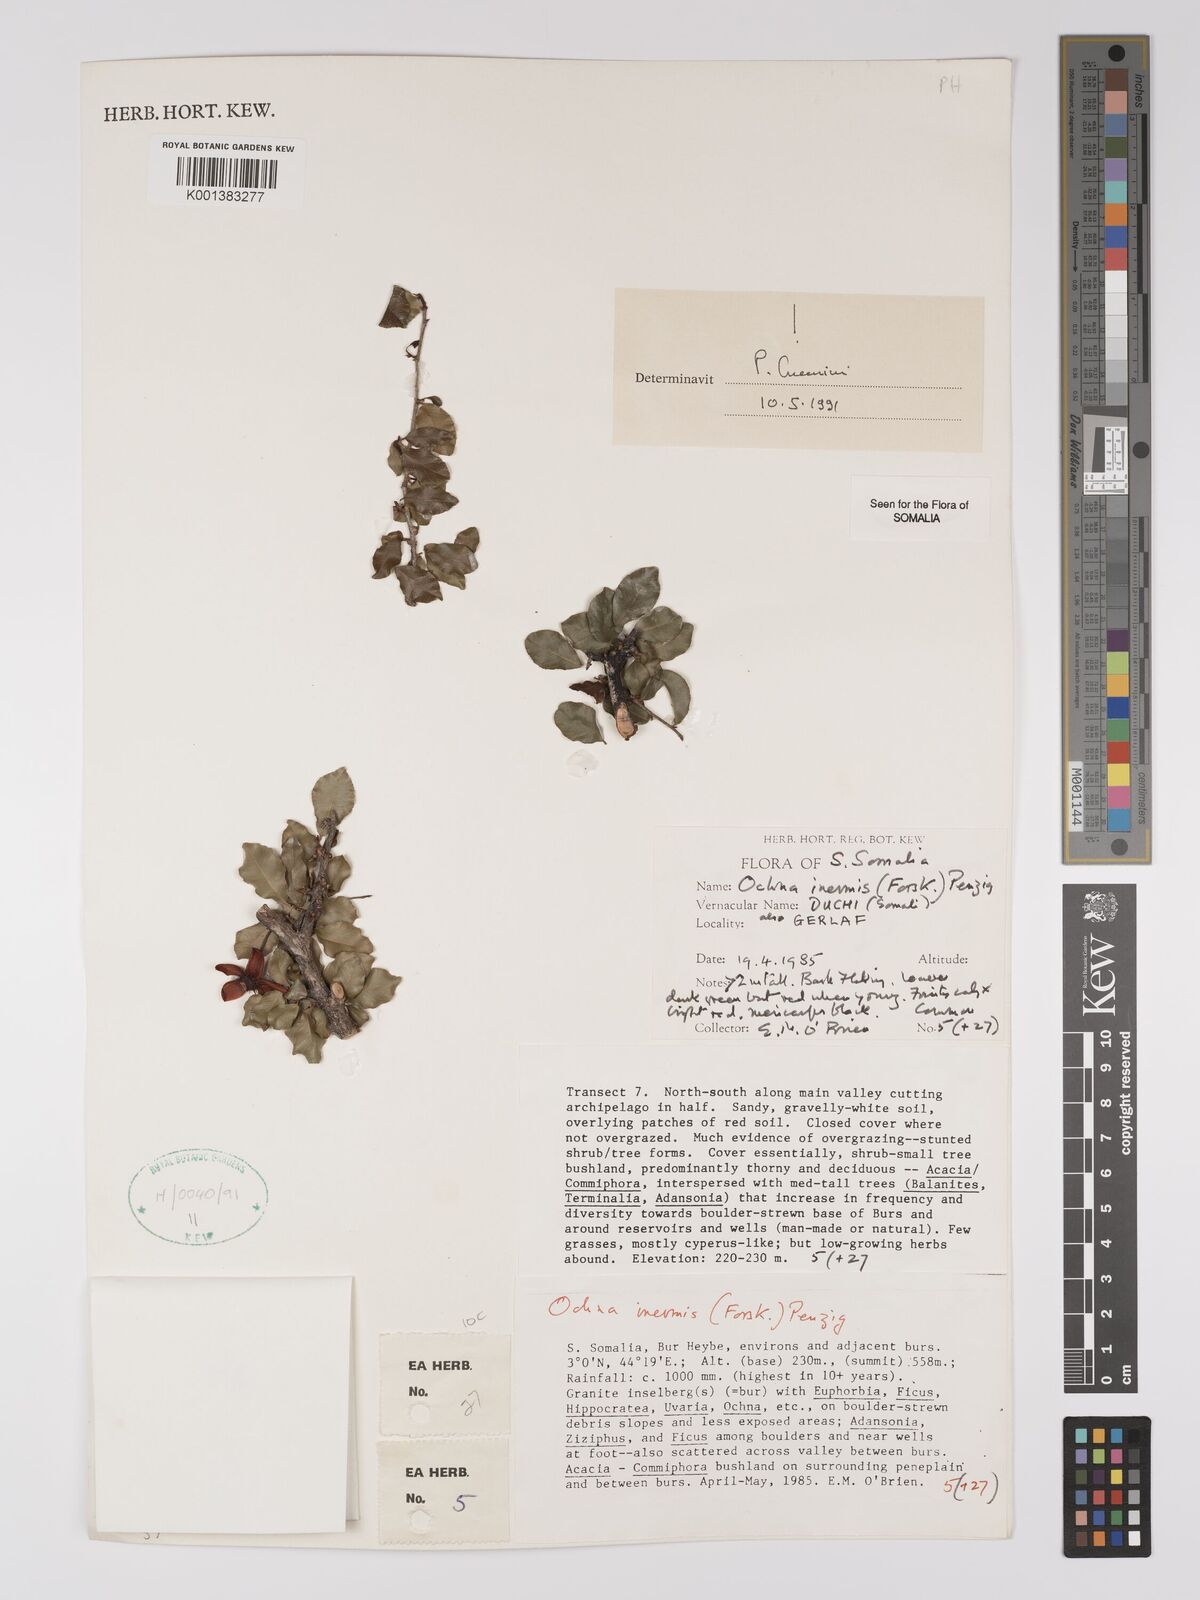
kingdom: Plantae
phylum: Tracheophyta
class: Magnoliopsida
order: Malpighiales
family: Ochnaceae
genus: Ochna
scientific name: Ochna inermis
